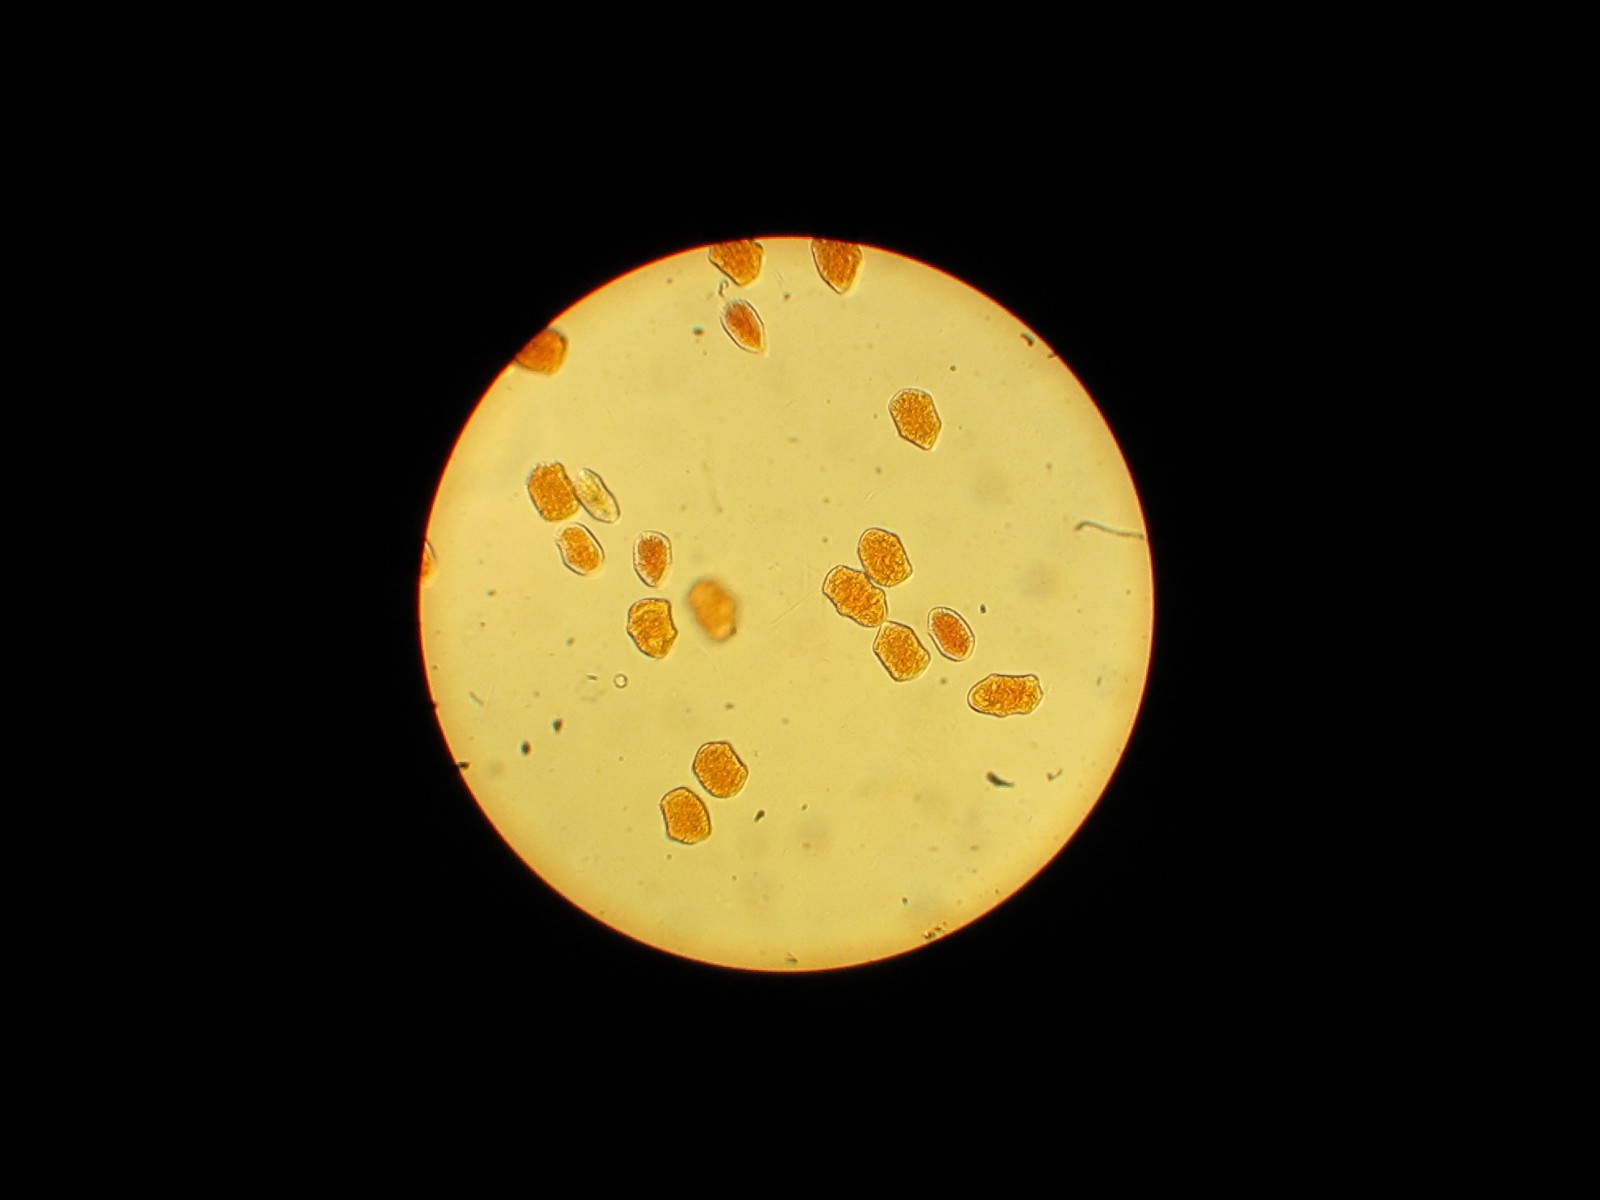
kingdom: Fungi
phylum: Basidiomycota
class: Pucciniomycetes
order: Pucciniales
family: Phragmidiaceae
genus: Phragmidium
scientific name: Phragmidium tuberculatum
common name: Rose rust
